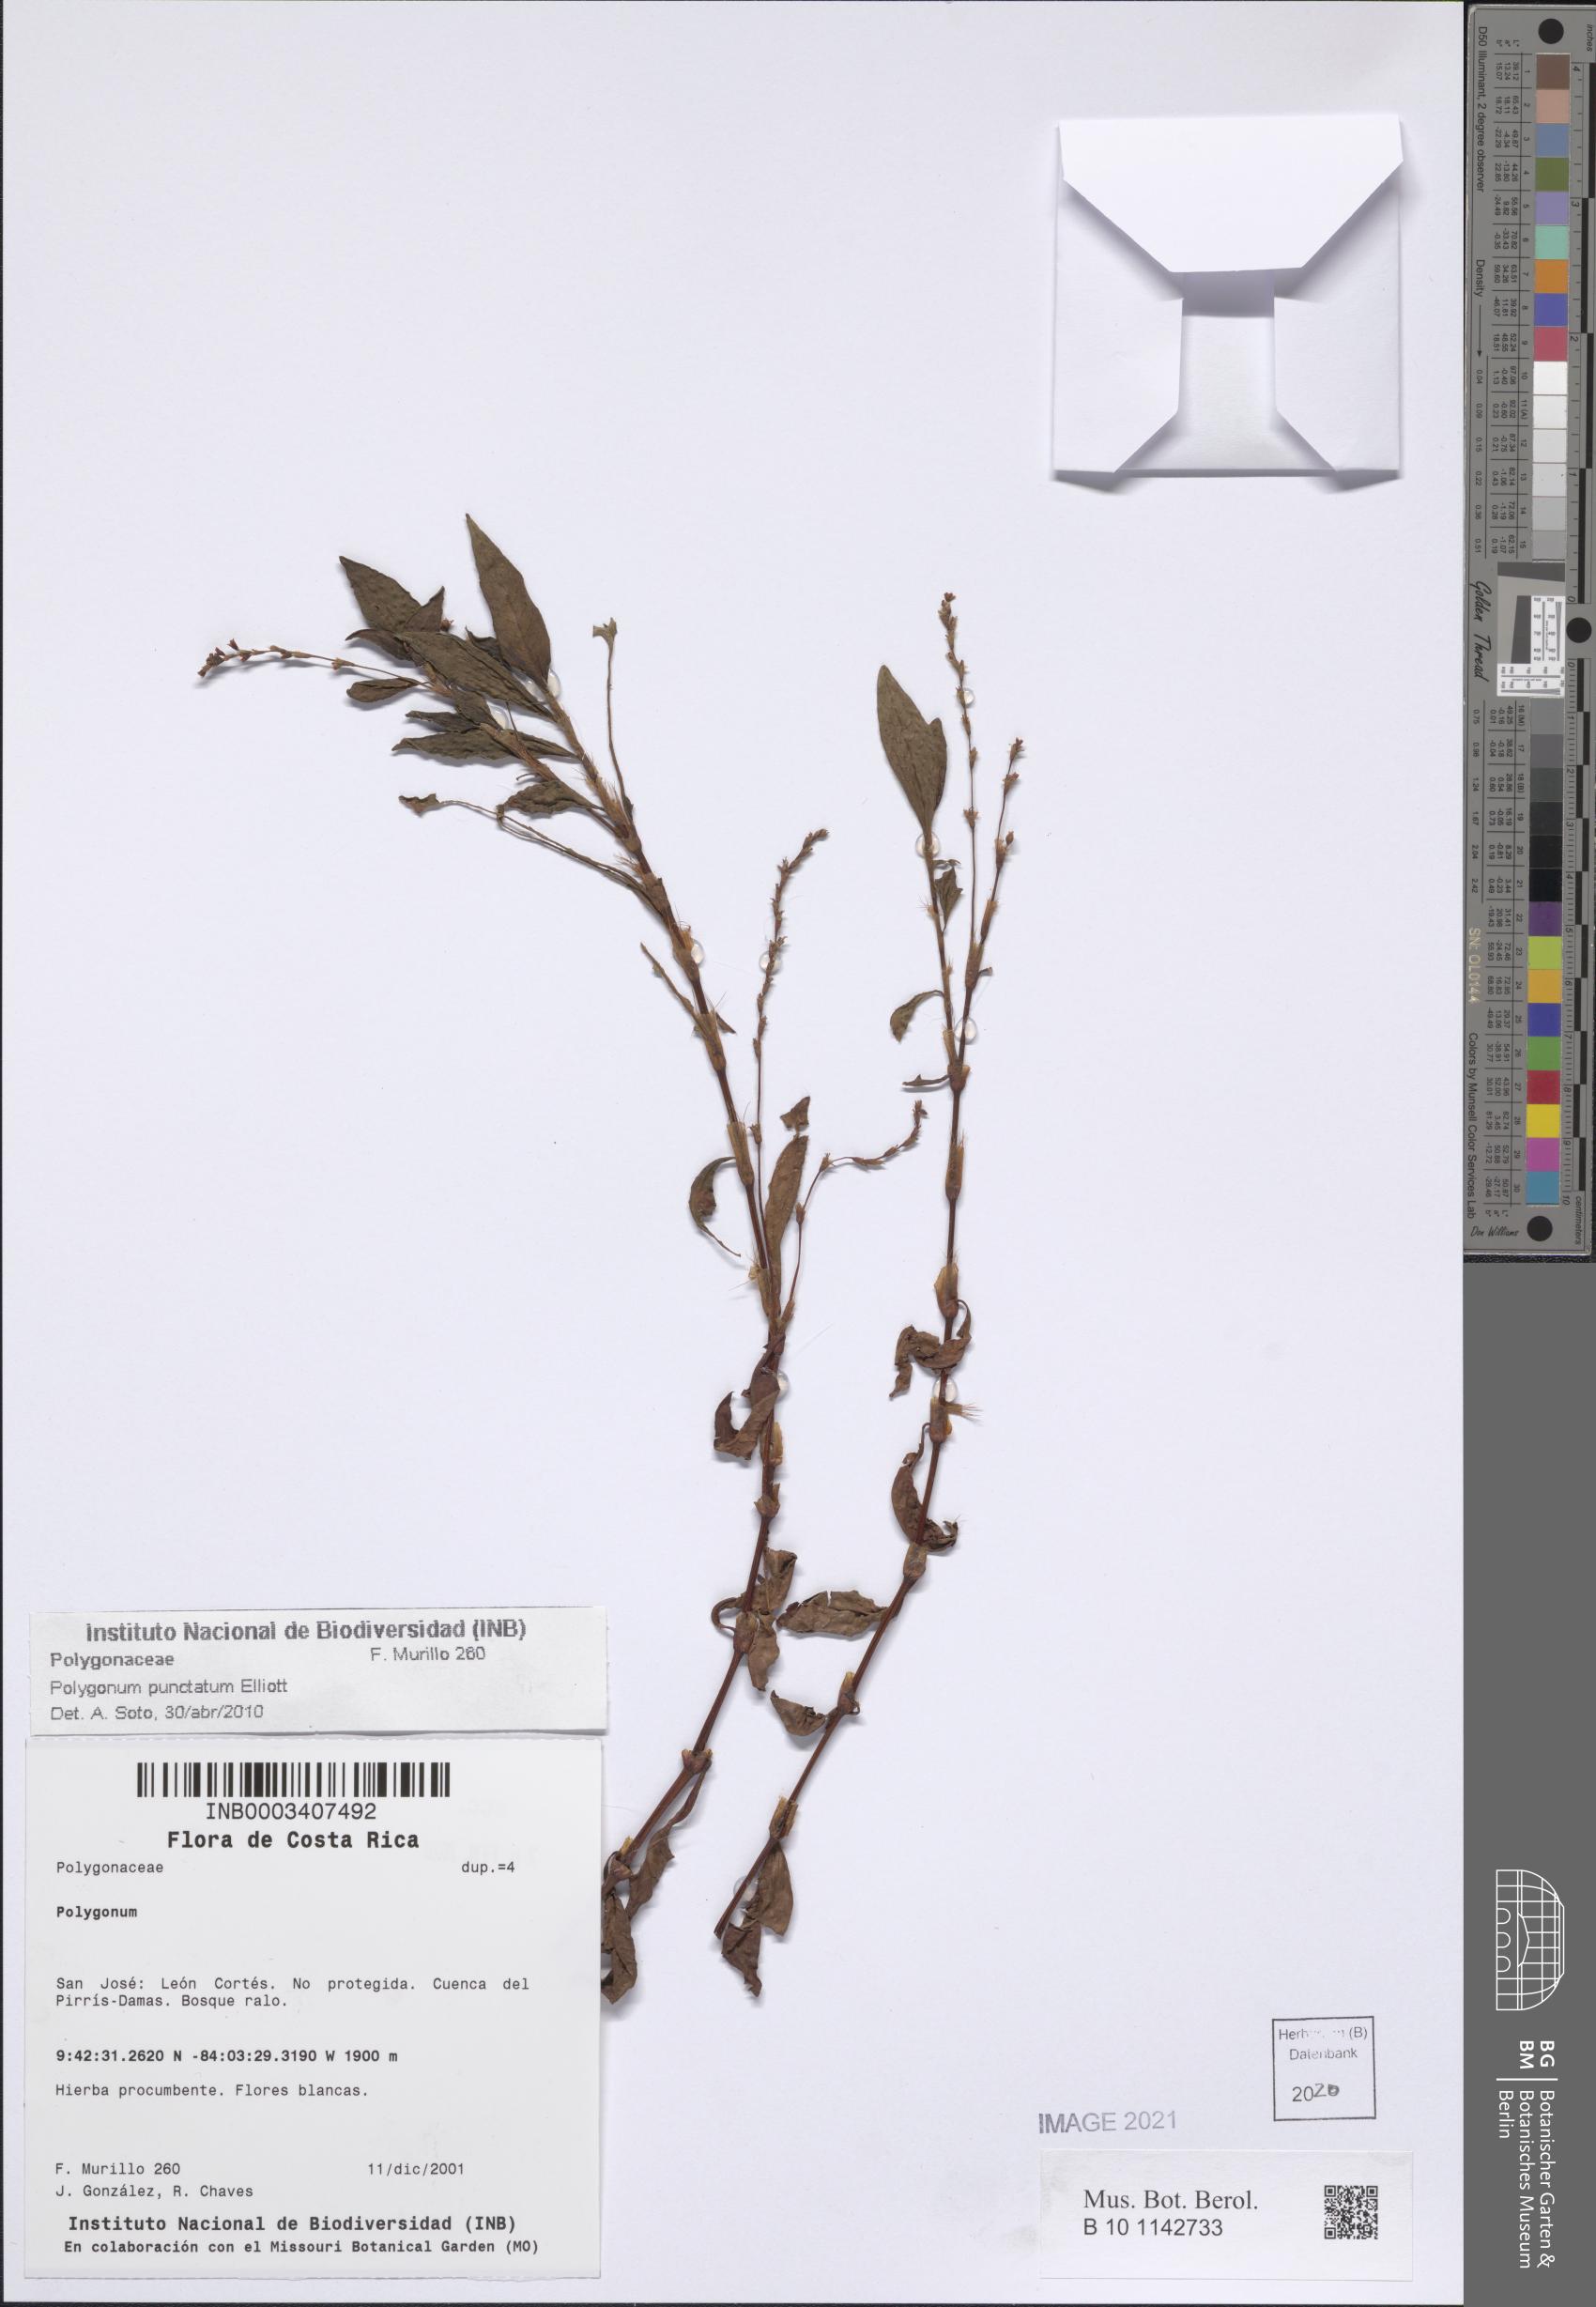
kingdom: Plantae
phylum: Tracheophyta
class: Magnoliopsida
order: Caryophyllales
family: Polygonaceae
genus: Persicaria
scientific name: Persicaria punctata
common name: Dotted smartweed
